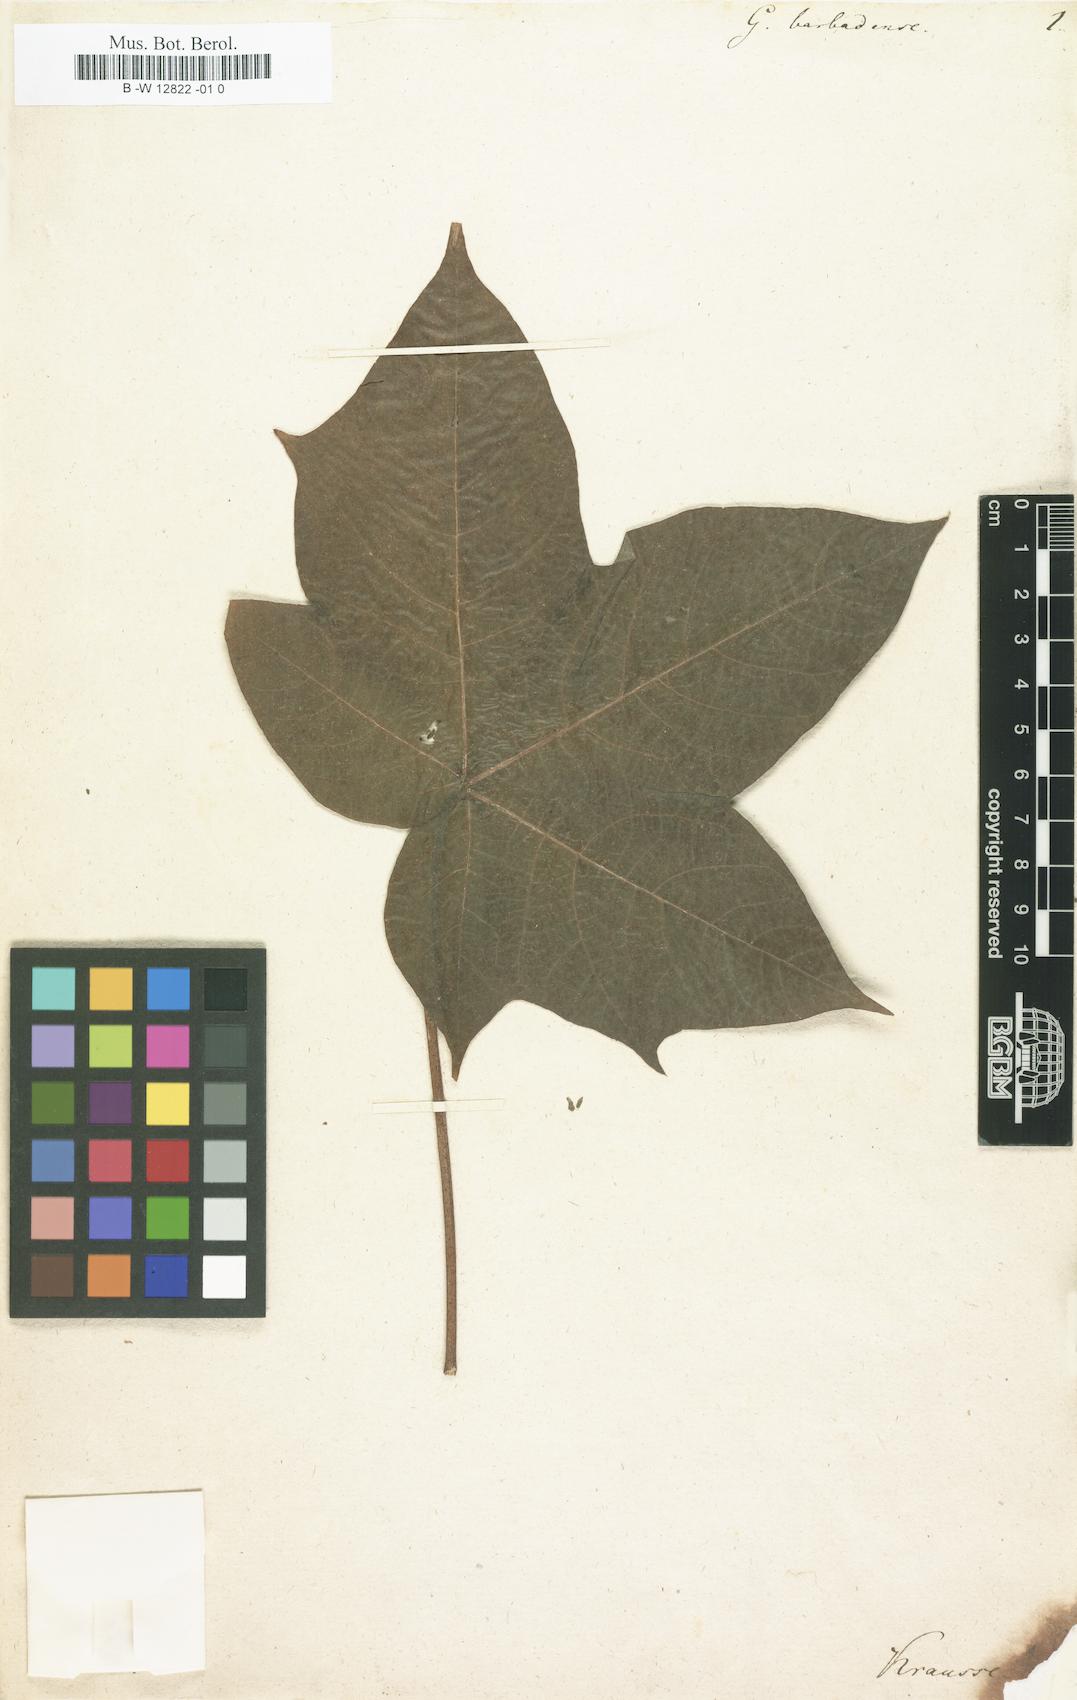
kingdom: Plantae
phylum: Tracheophyta
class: Magnoliopsida
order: Malvales
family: Malvaceae
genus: Gossypium
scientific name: Gossypium barbadense
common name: Creole cotton
